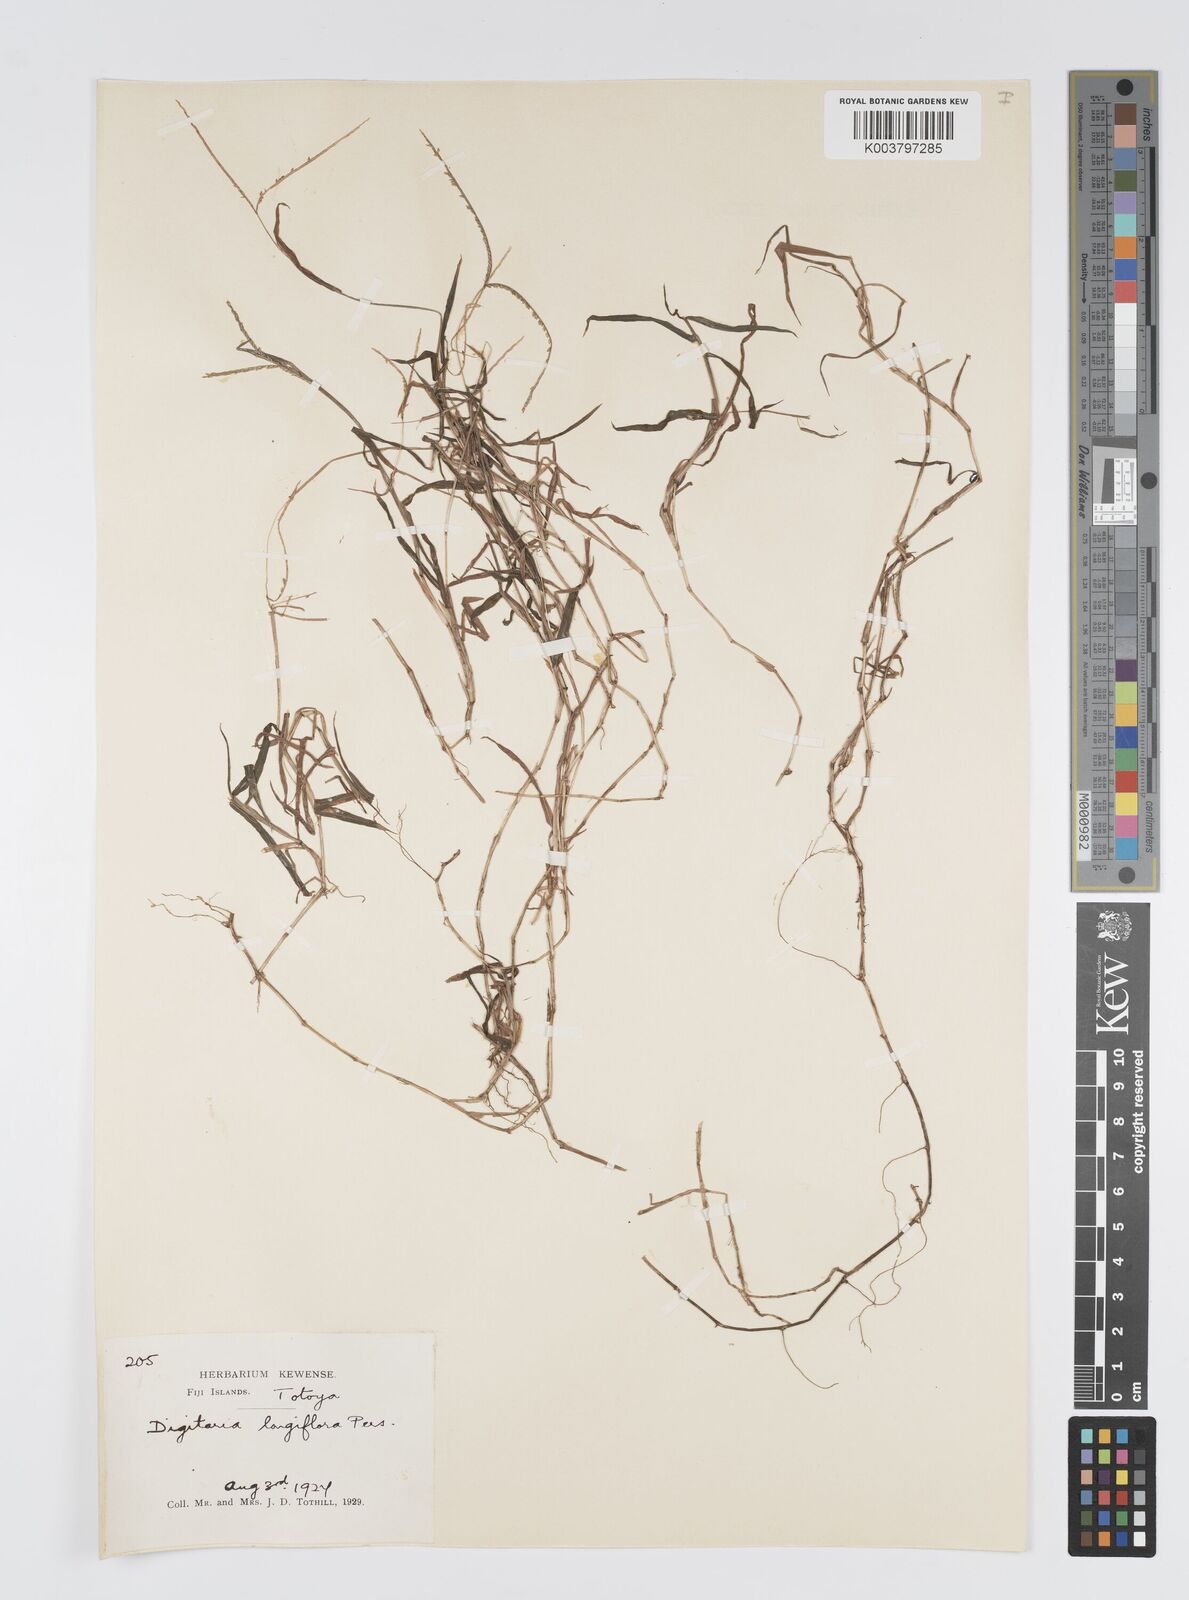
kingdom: Plantae
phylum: Tracheophyta
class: Liliopsida
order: Poales
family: Poaceae
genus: Digitaria
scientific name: Digitaria fuscescens
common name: Yellow crabgrass
